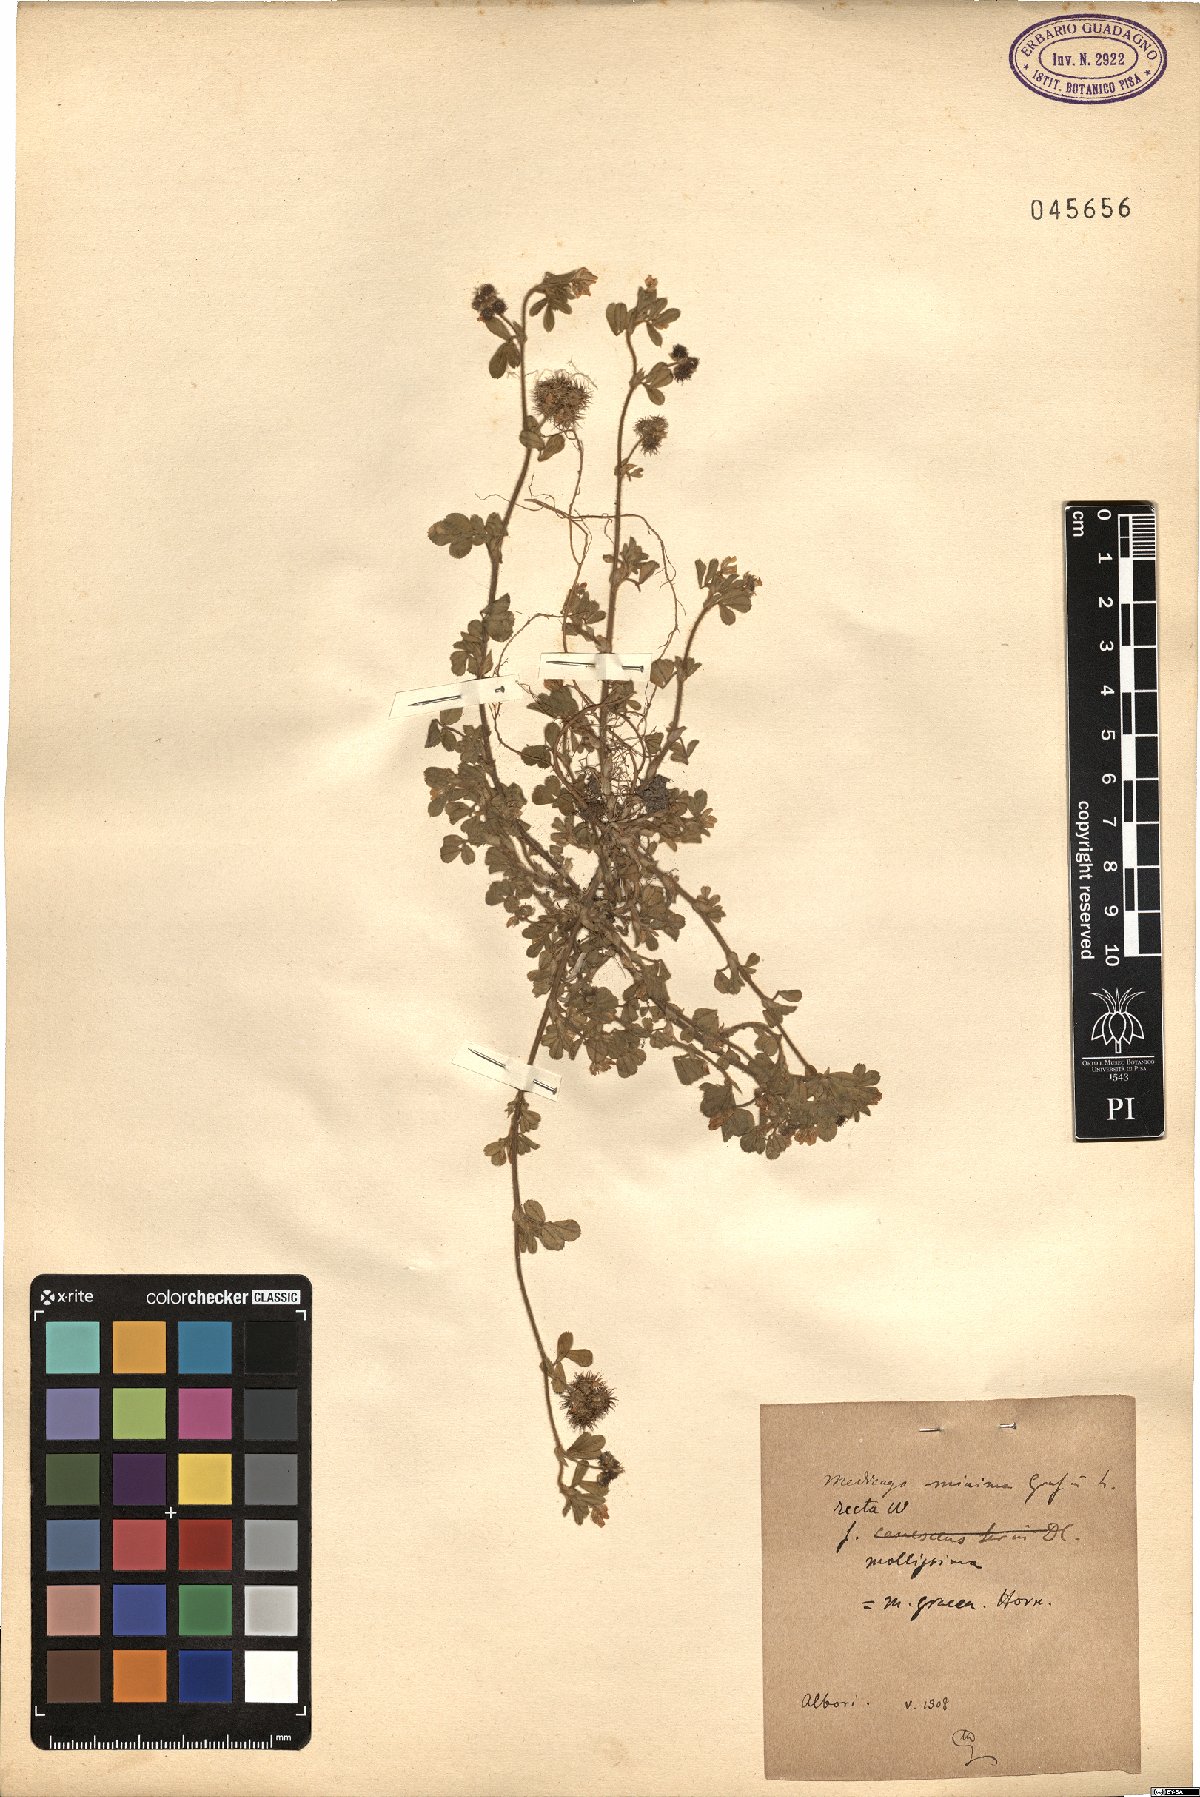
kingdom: Plantae
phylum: Tracheophyta
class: Magnoliopsida
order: Fabales
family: Fabaceae
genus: Medicago
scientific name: Medicago minima
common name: Little bur-clover
